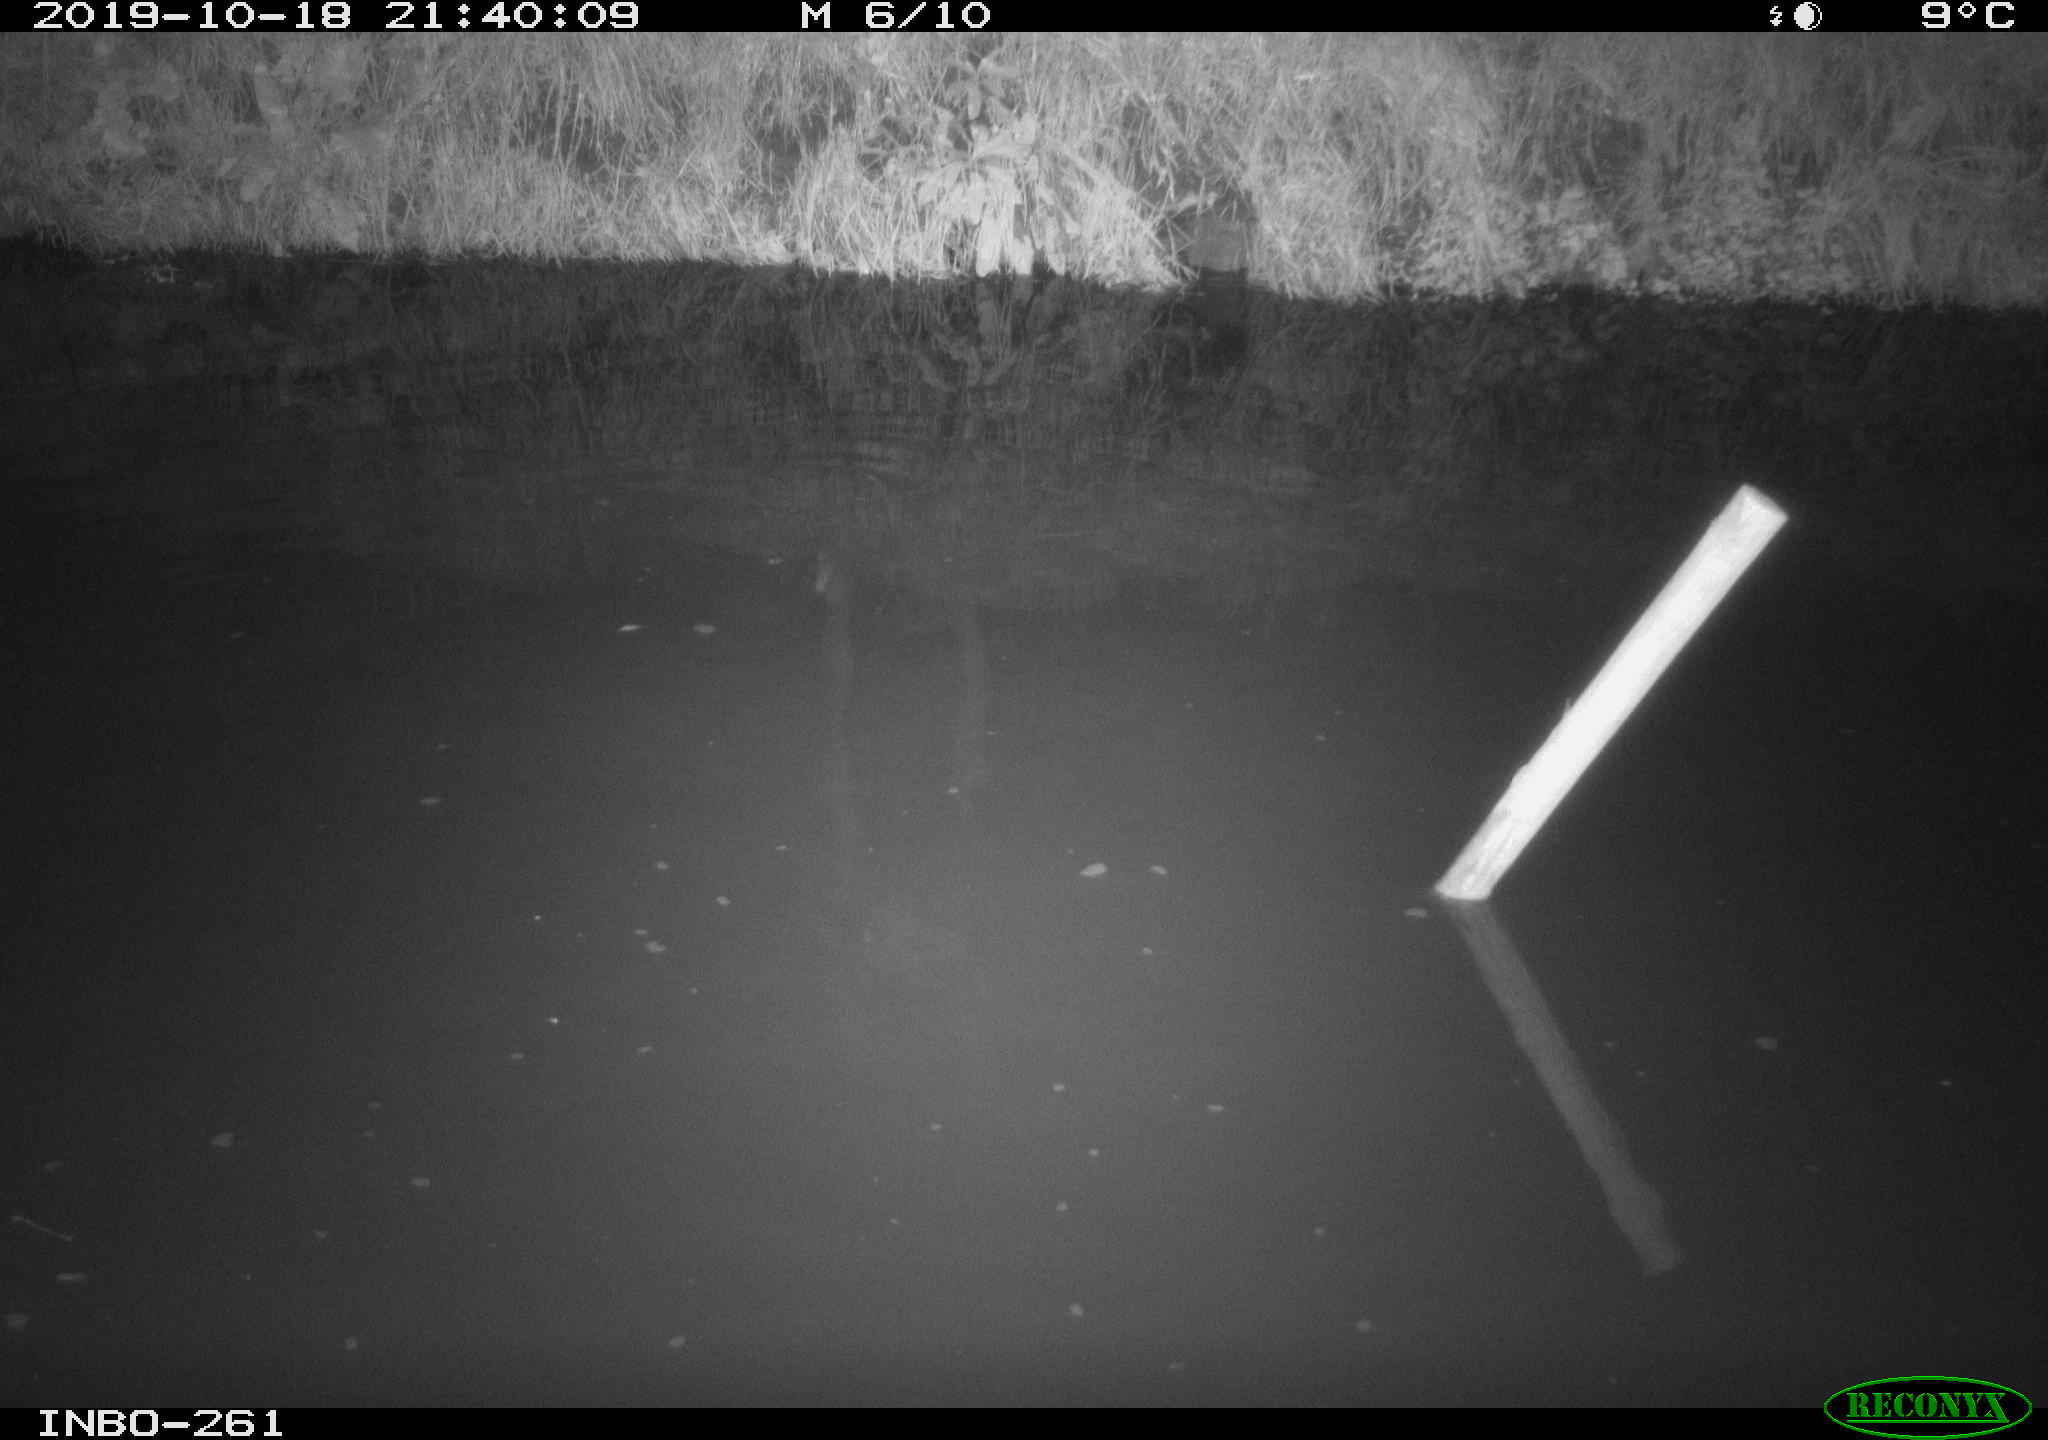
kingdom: Animalia
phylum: Chordata
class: Aves
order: Anseriformes
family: Anatidae
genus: Anas
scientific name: Anas platyrhynchos
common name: Mallard
